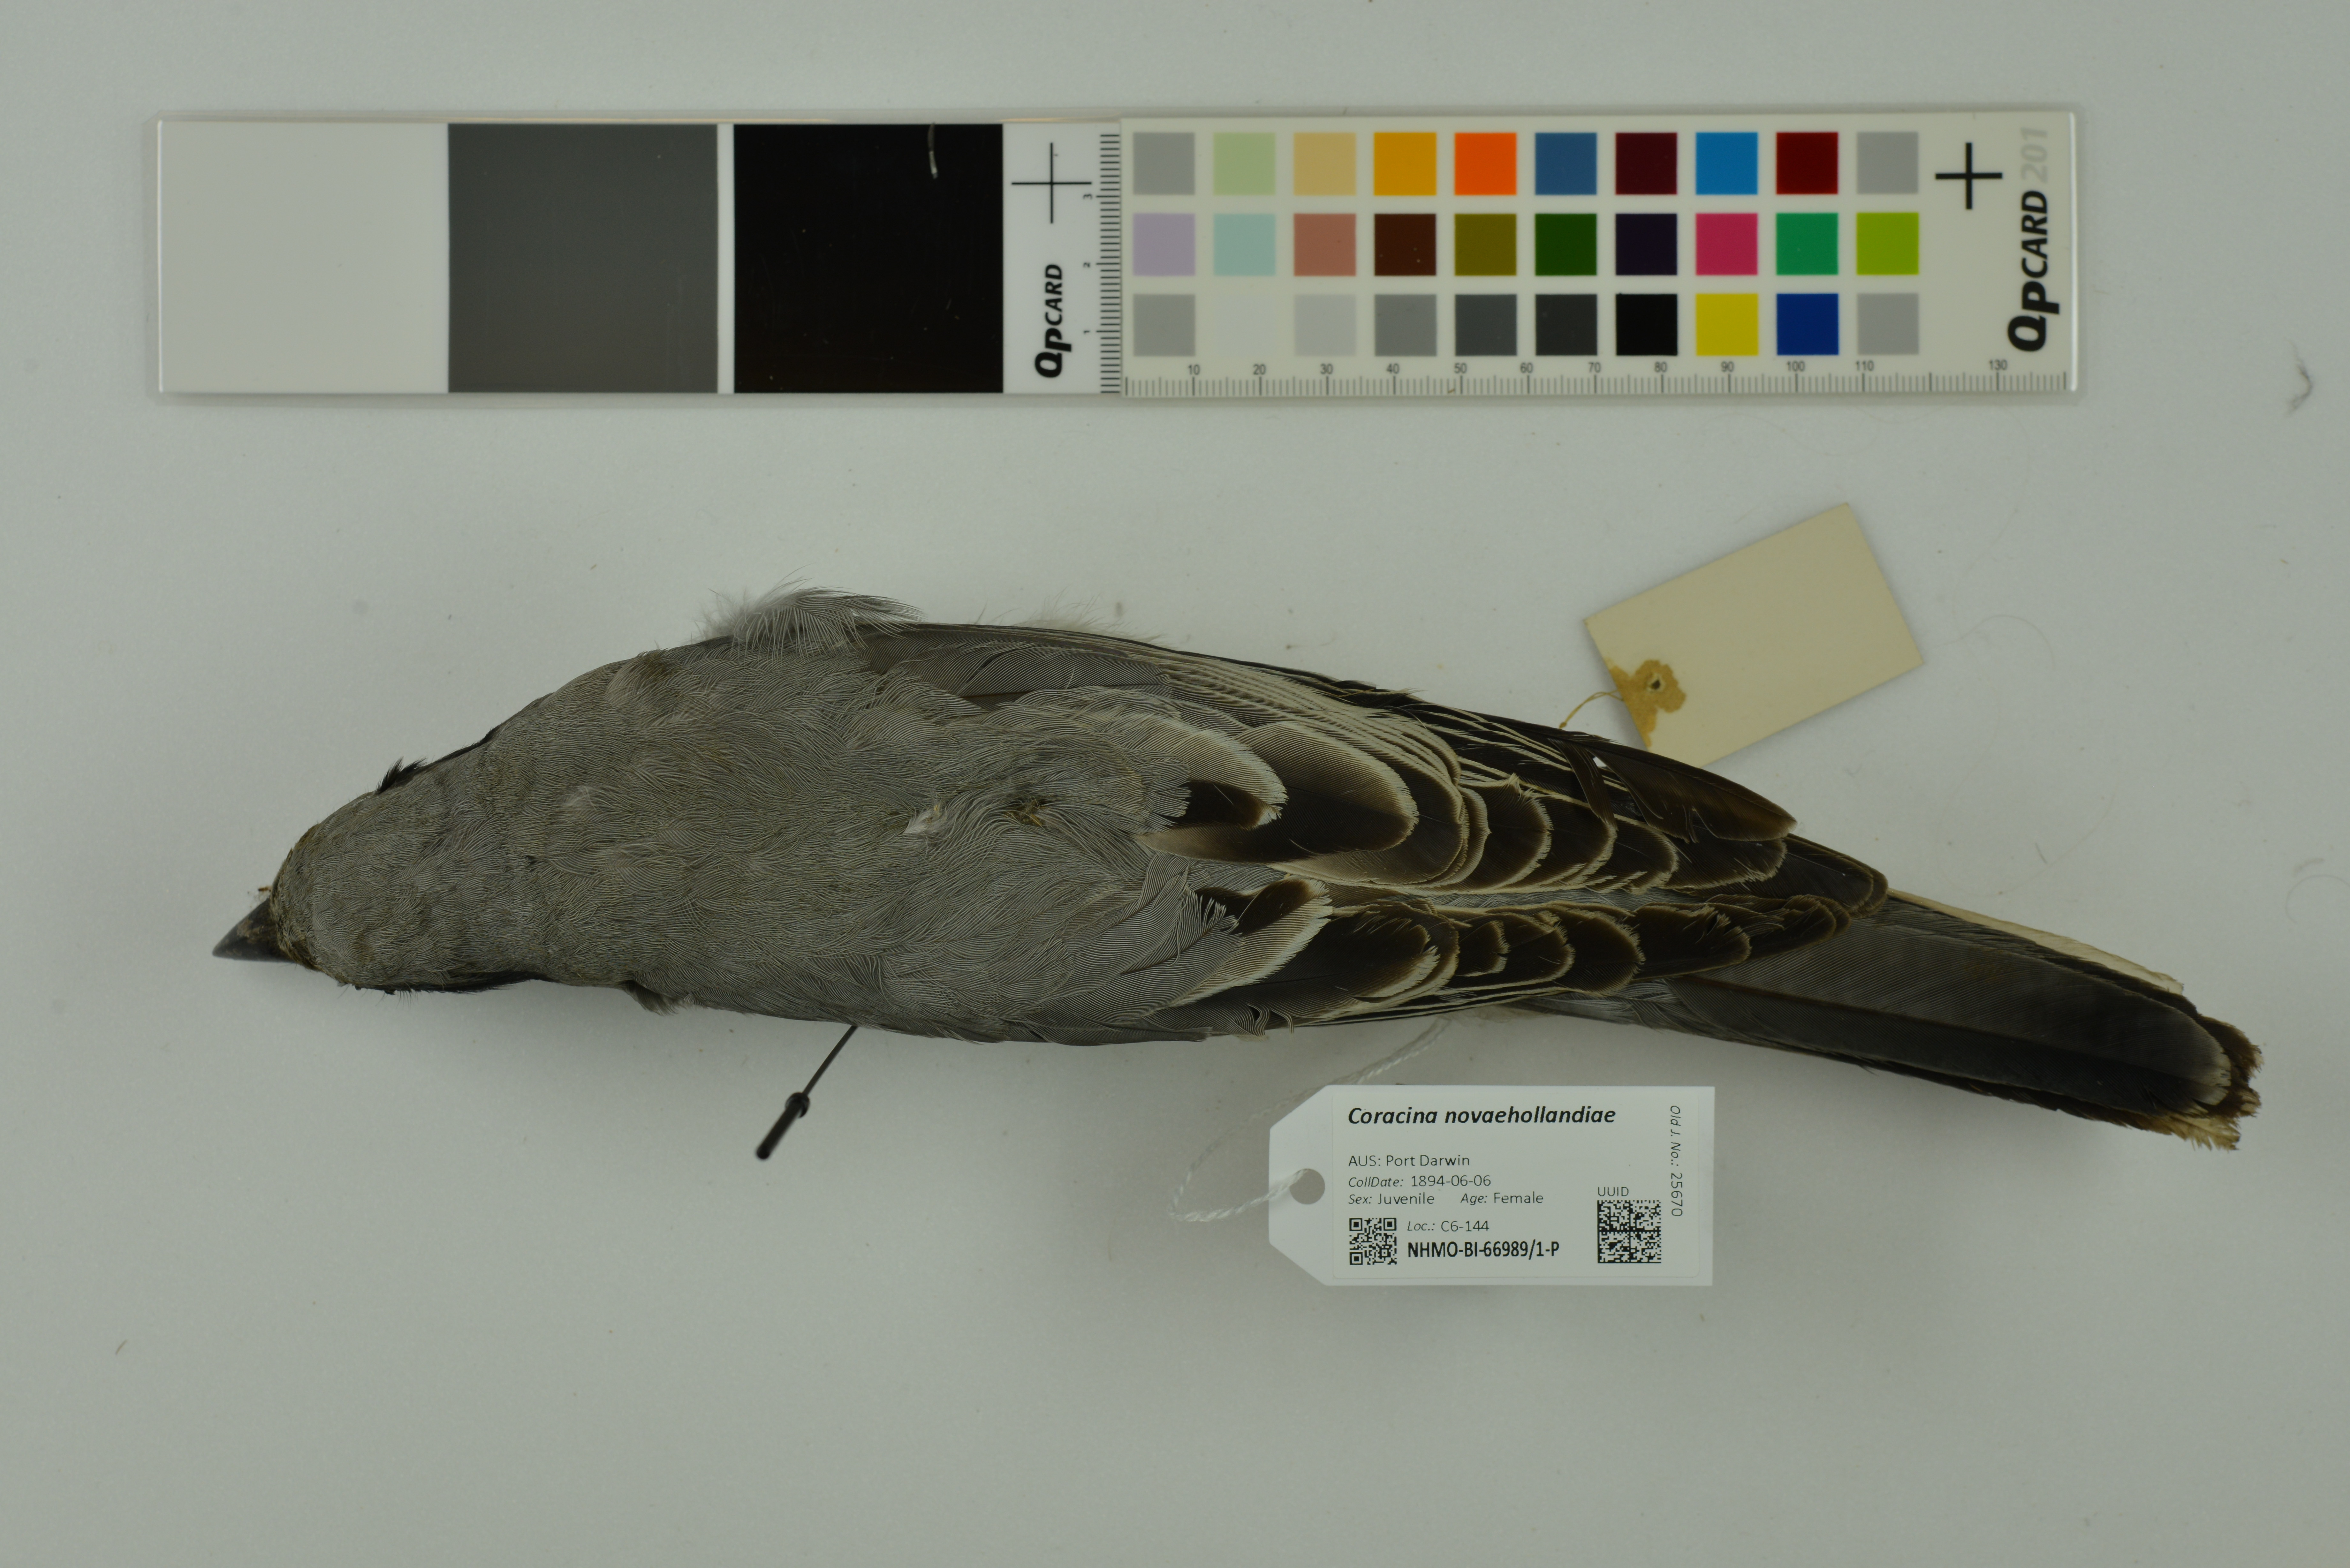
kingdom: Animalia
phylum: Chordata
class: Aves
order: Passeriformes
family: Campephagidae
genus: Coracina
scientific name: Coracina novaehollandiae
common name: Black-faced cuckooshrike
